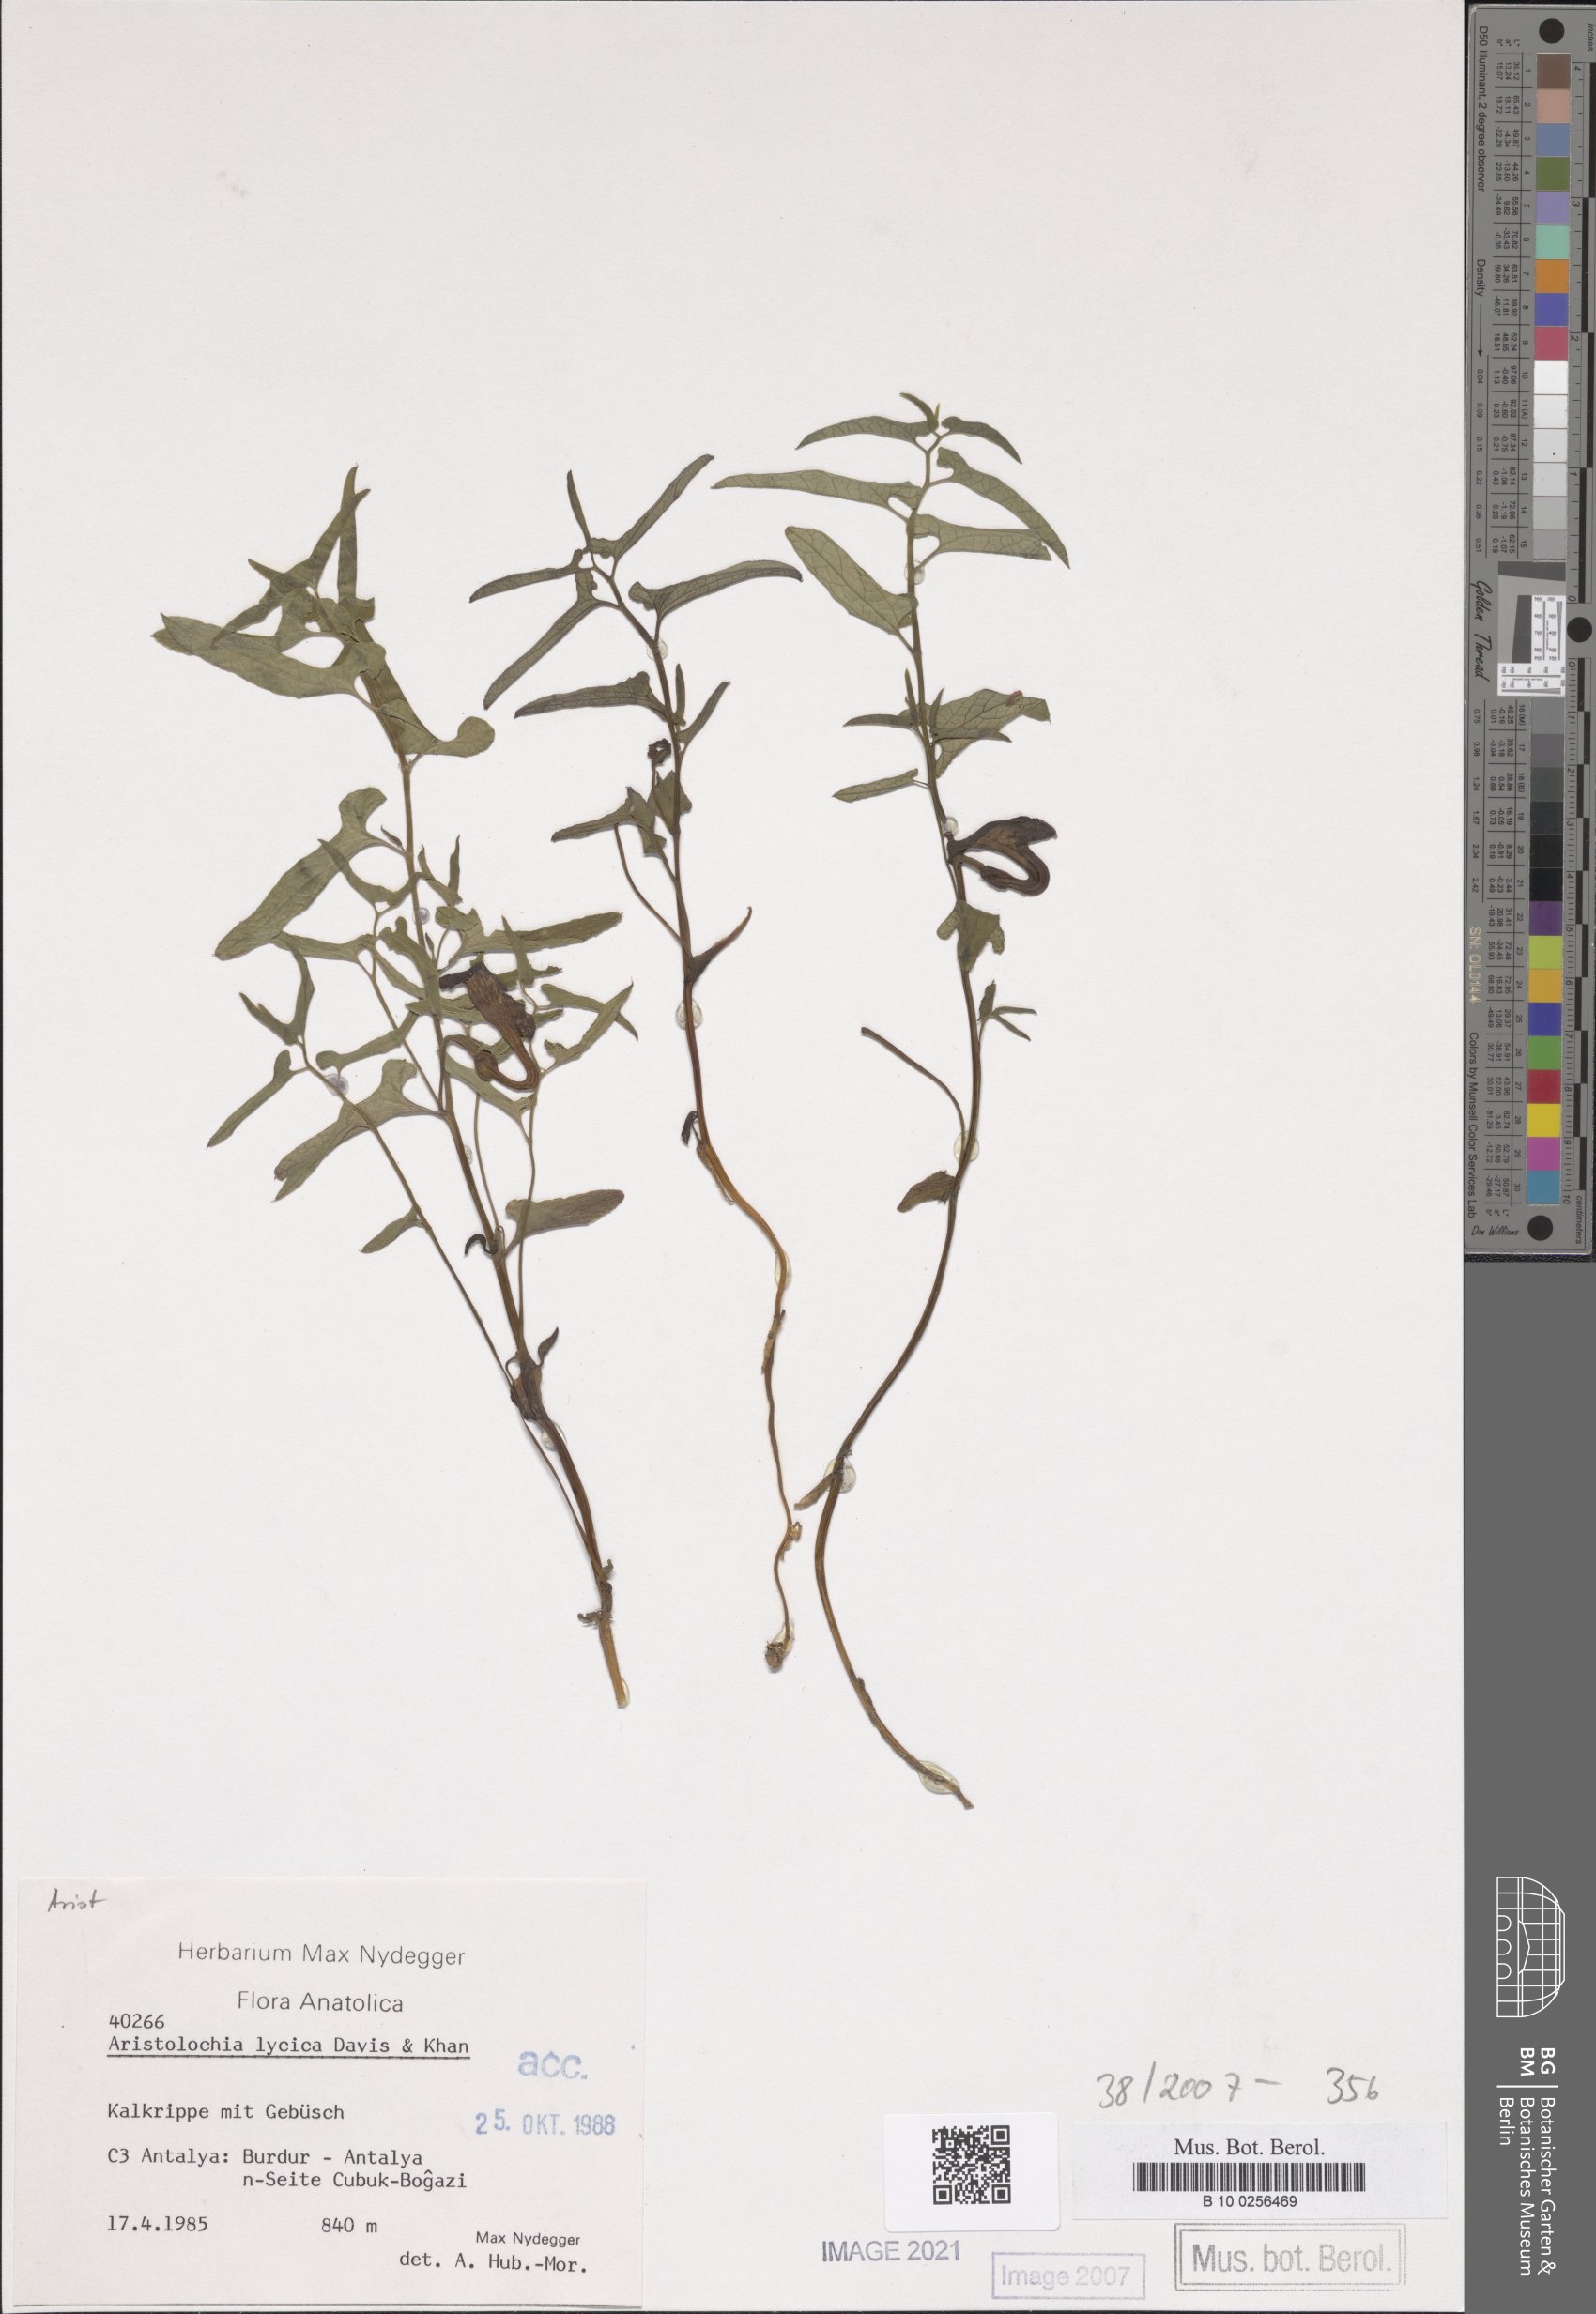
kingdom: Plantae
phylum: Tracheophyta
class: Magnoliopsida
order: Piperales
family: Aristolochiaceae
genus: Aristolochia
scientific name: Aristolochia lycica
